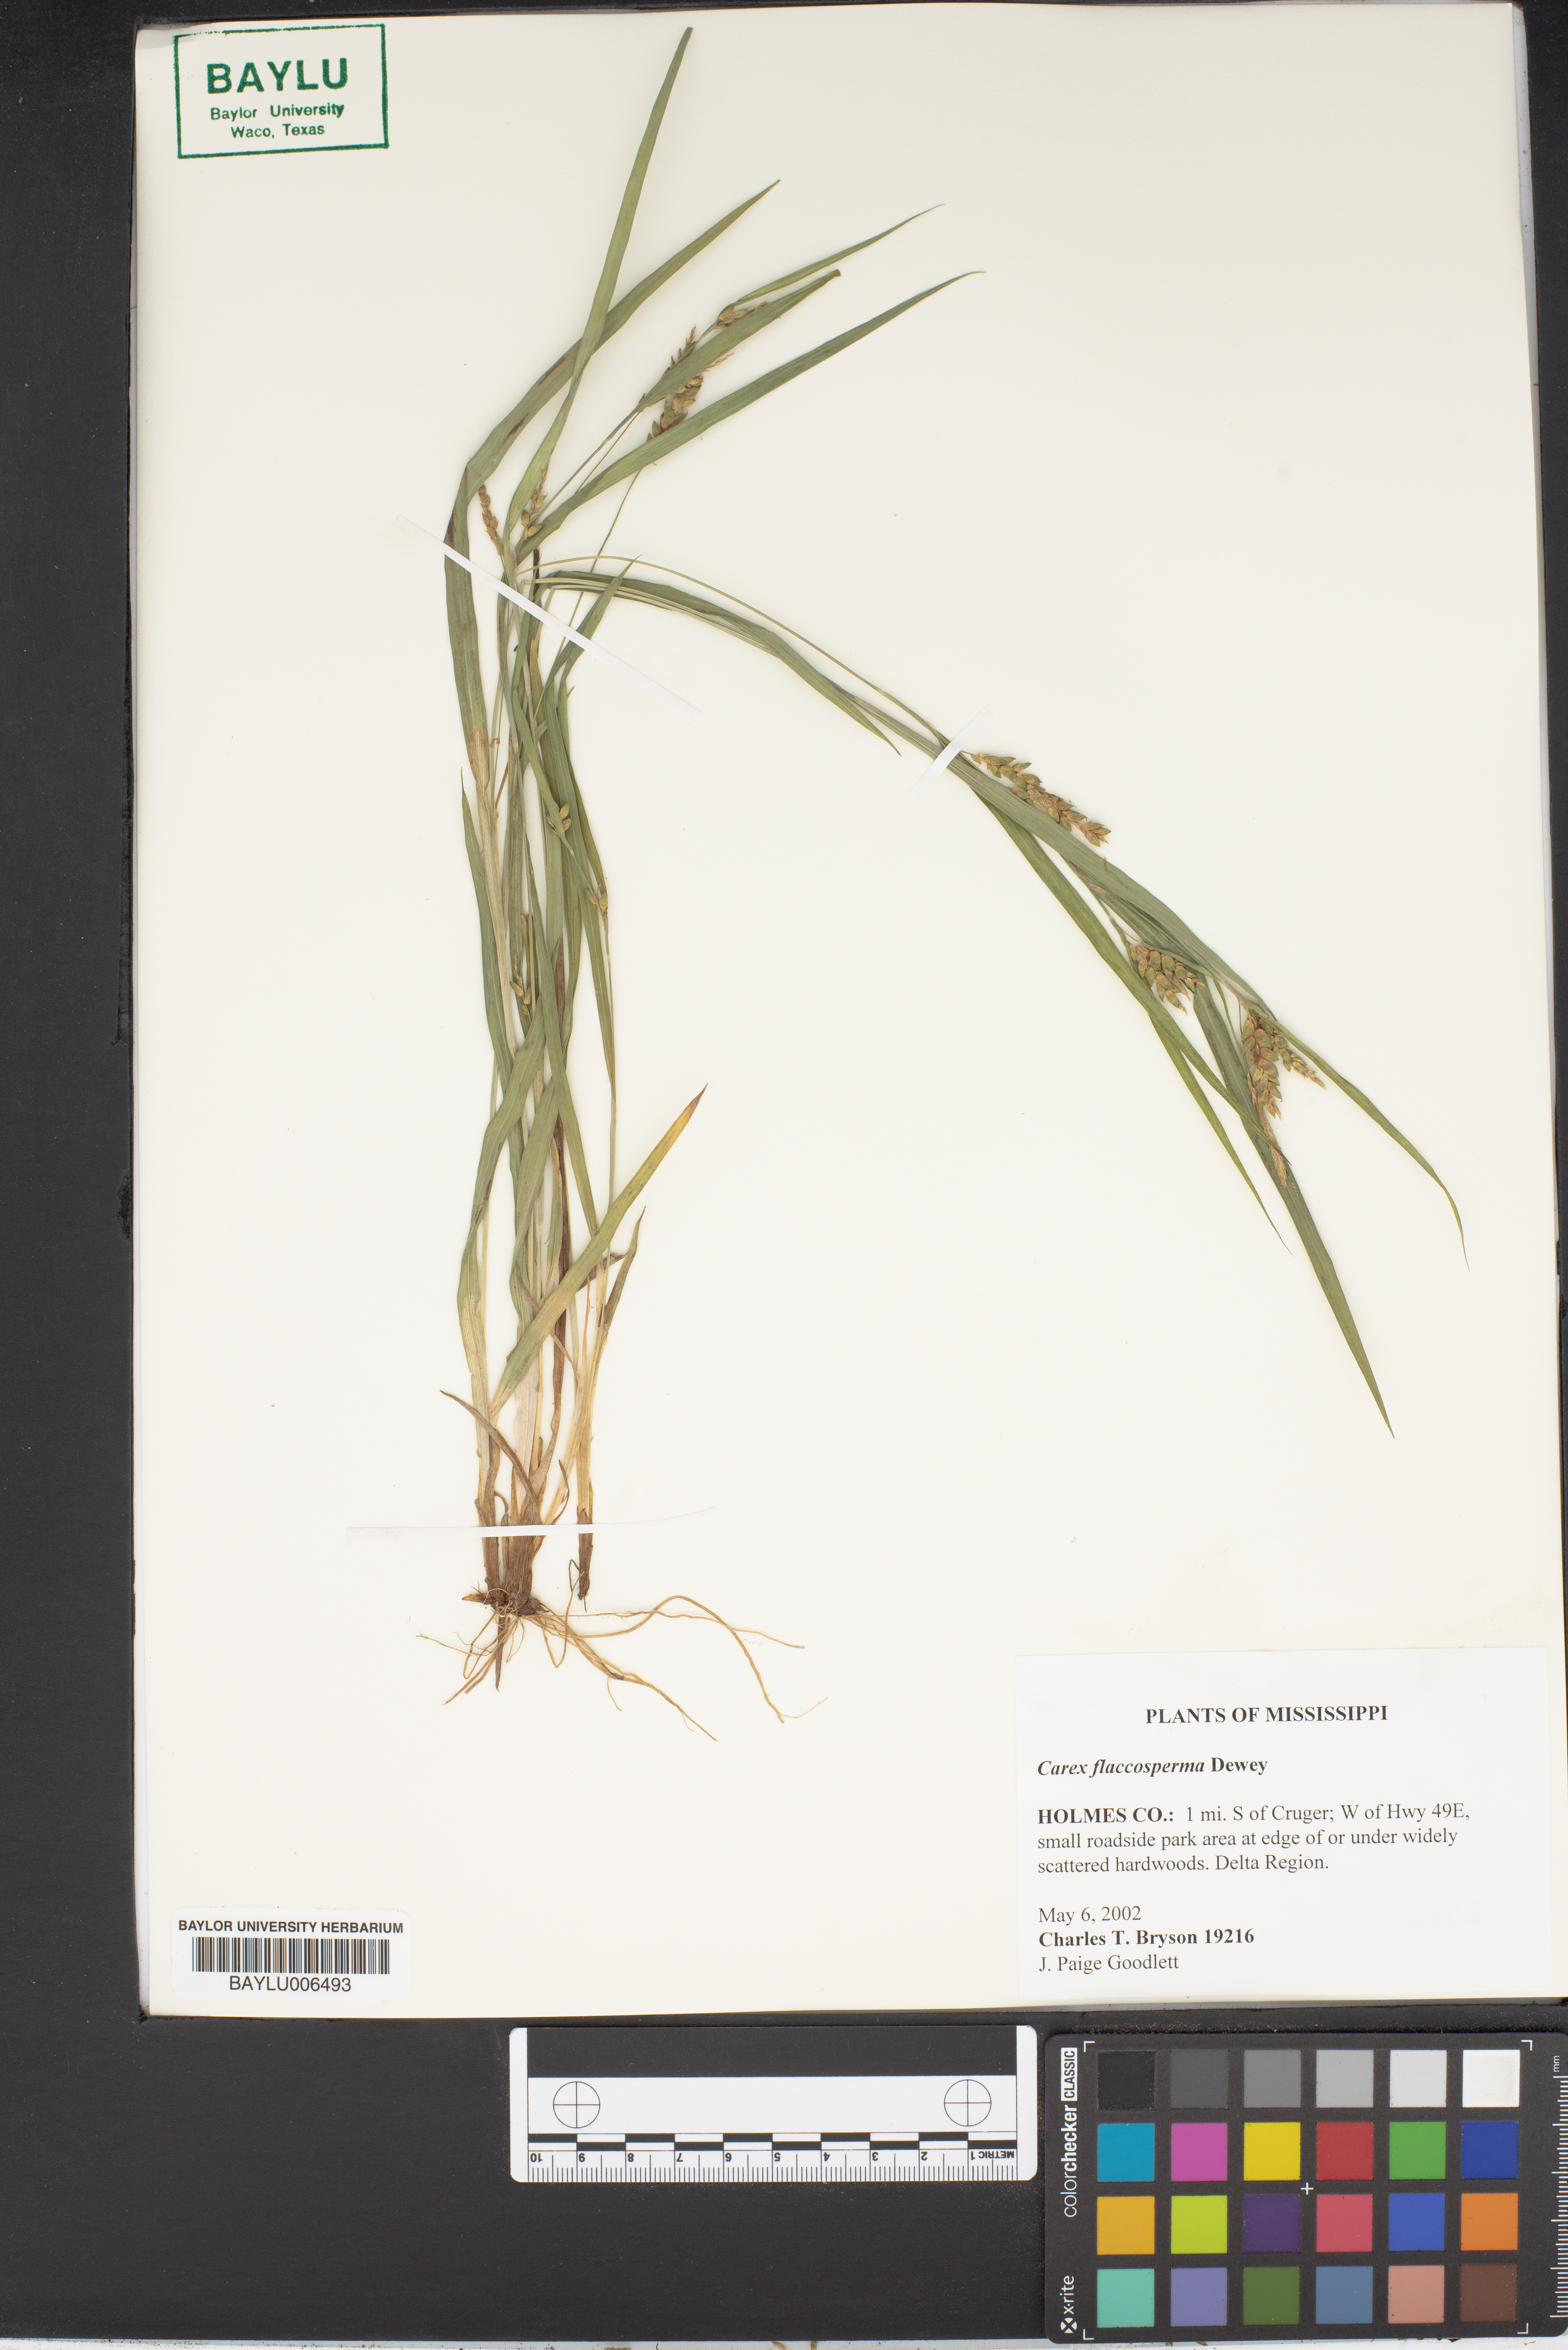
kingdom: Plantae
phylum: Tracheophyta
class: Liliopsida
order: Poales
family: Cyperaceae
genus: Carex
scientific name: Carex flaccosperma
